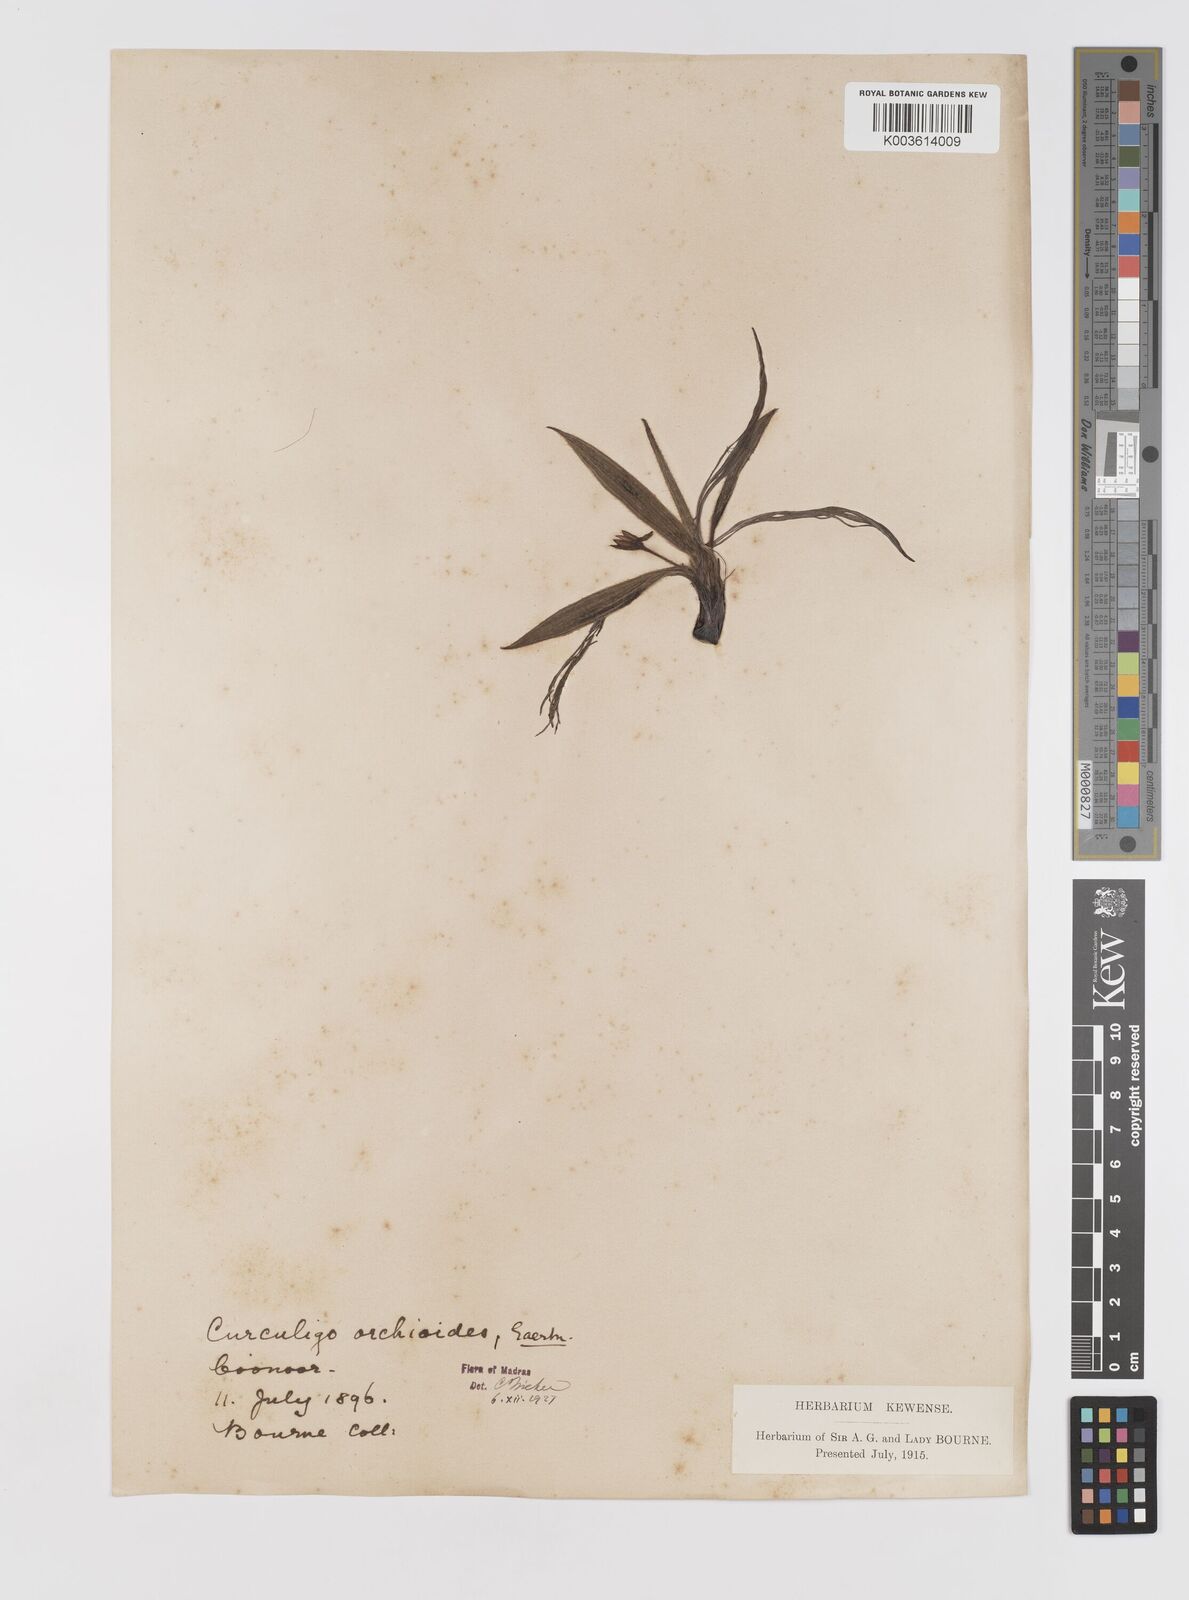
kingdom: Plantae
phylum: Tracheophyta
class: Liliopsida
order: Asparagales
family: Hypoxidaceae
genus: Curculigo
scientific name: Curculigo orchioides
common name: Golden eye-grass
